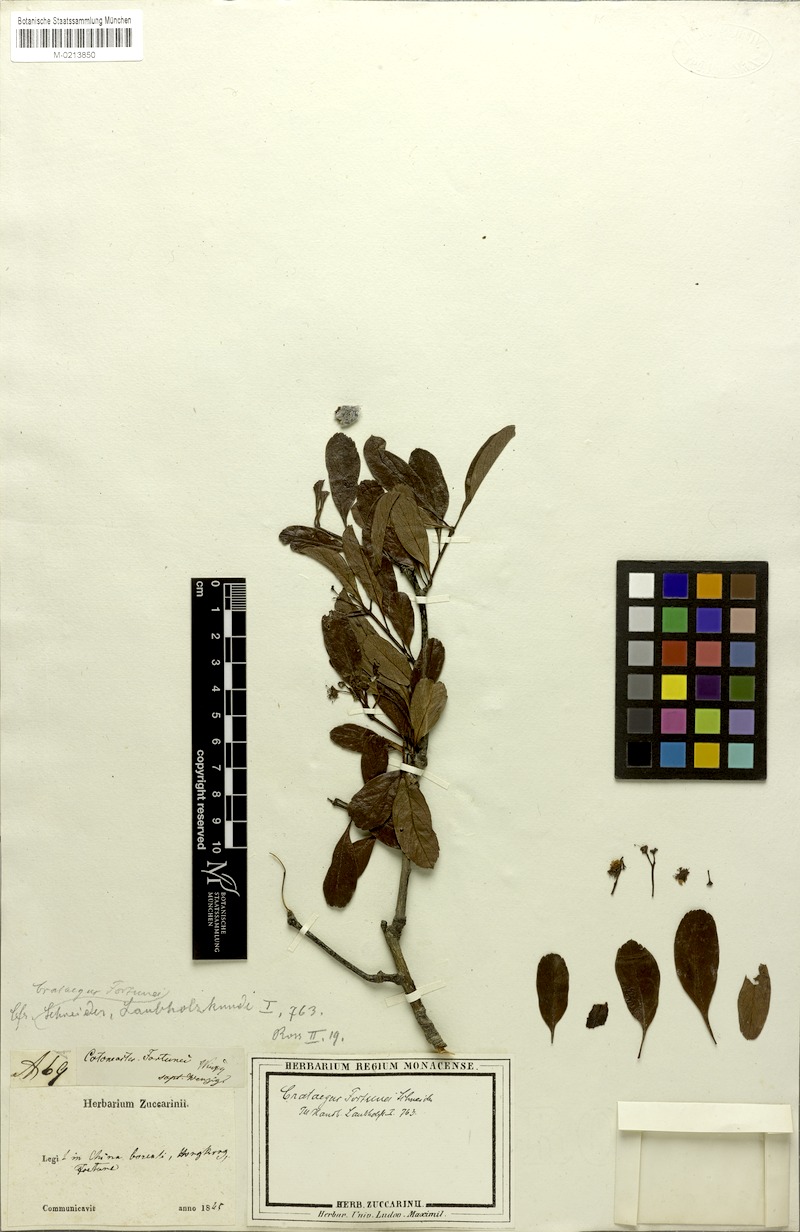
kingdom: Plantae
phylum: Tracheophyta
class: Magnoliopsida
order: Rosales
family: Rosaceae
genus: Crataegus
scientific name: Crataegus
